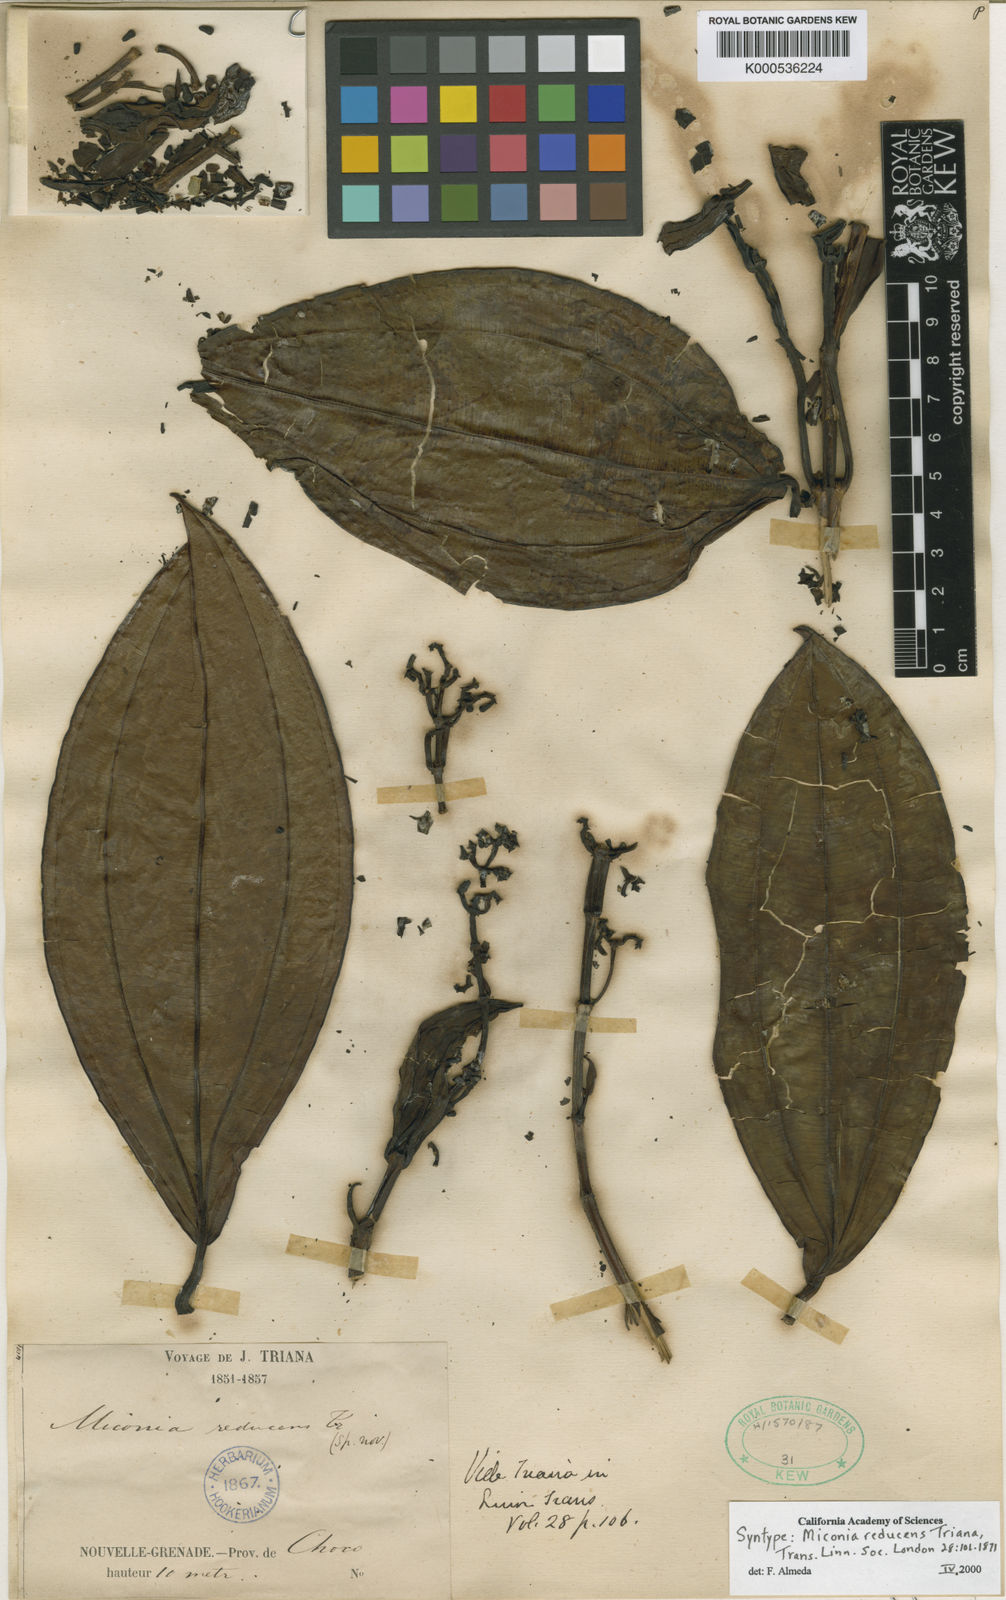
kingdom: Plantae
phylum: Tracheophyta
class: Magnoliopsida
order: Myrtales
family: Melastomataceae
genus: Miconia
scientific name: Miconia reducens
